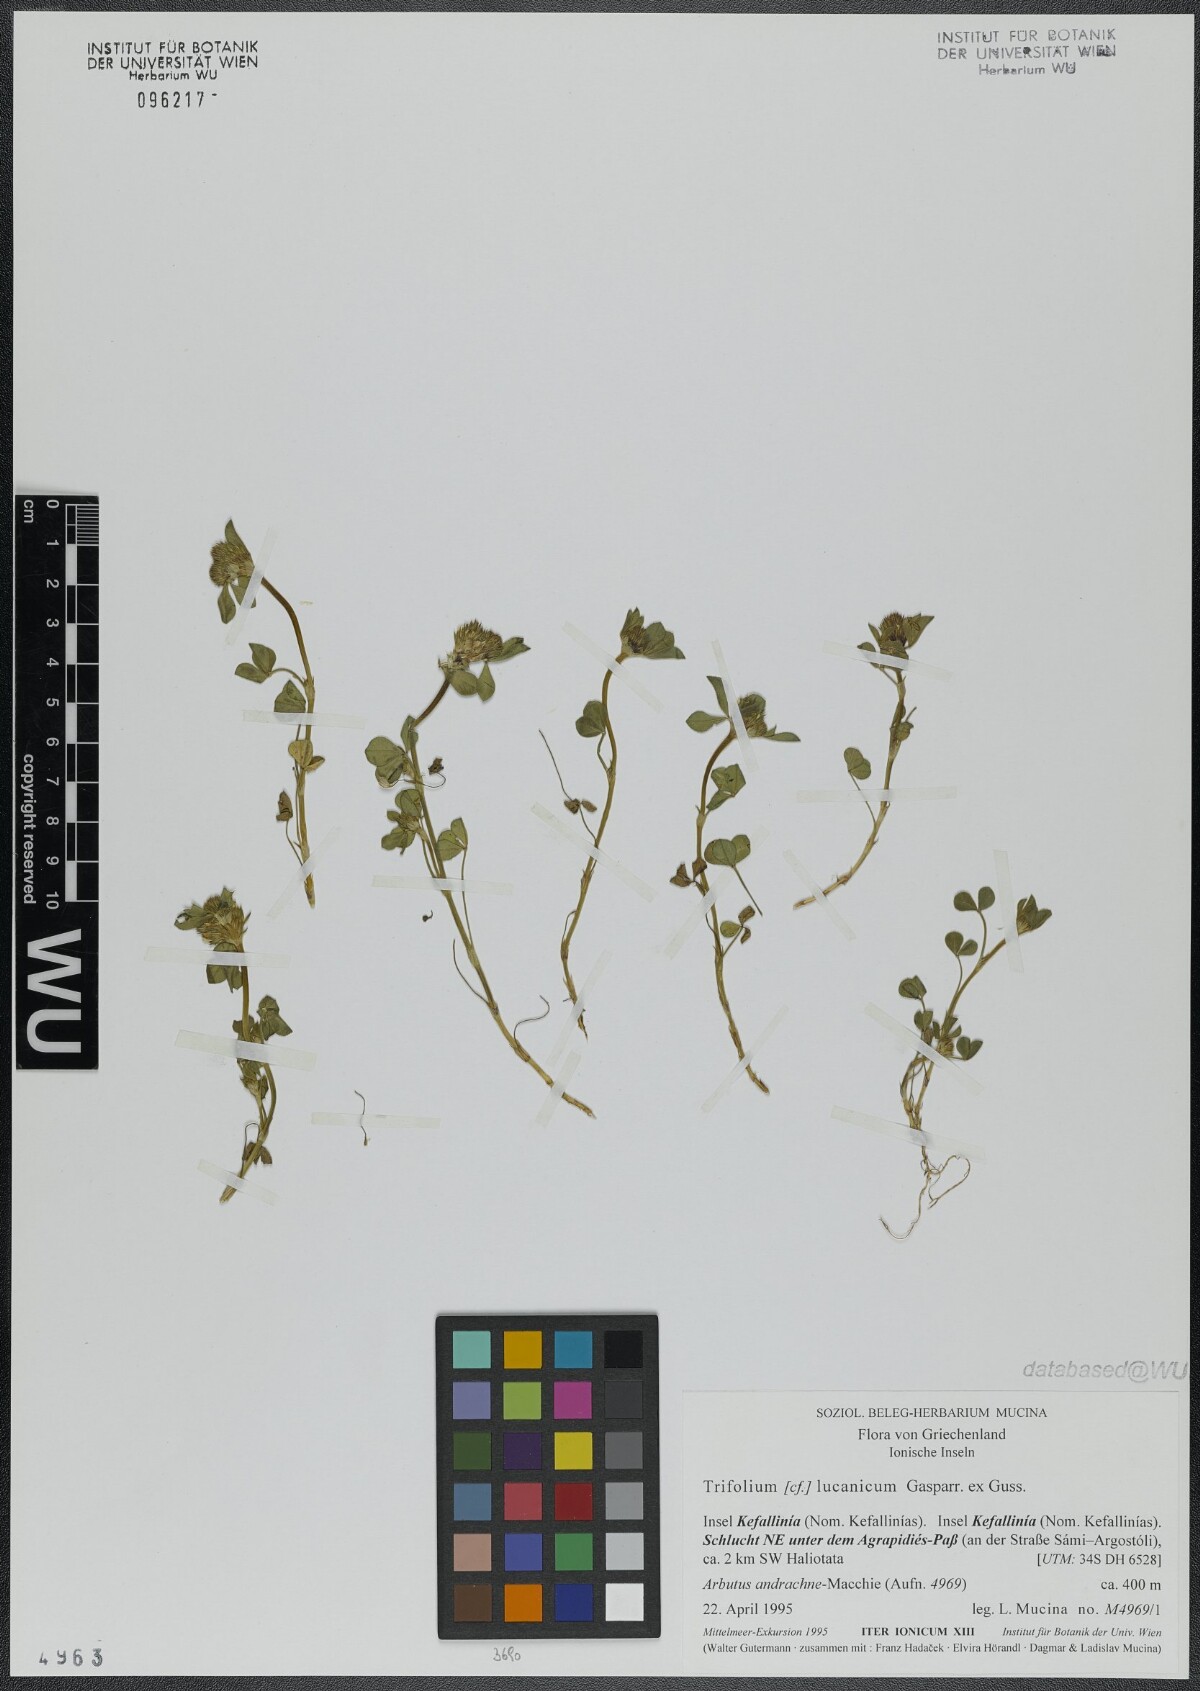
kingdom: Plantae
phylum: Tracheophyta
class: Magnoliopsida
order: Fabales
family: Fabaceae
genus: Trifolium
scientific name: Trifolium lucanicum
